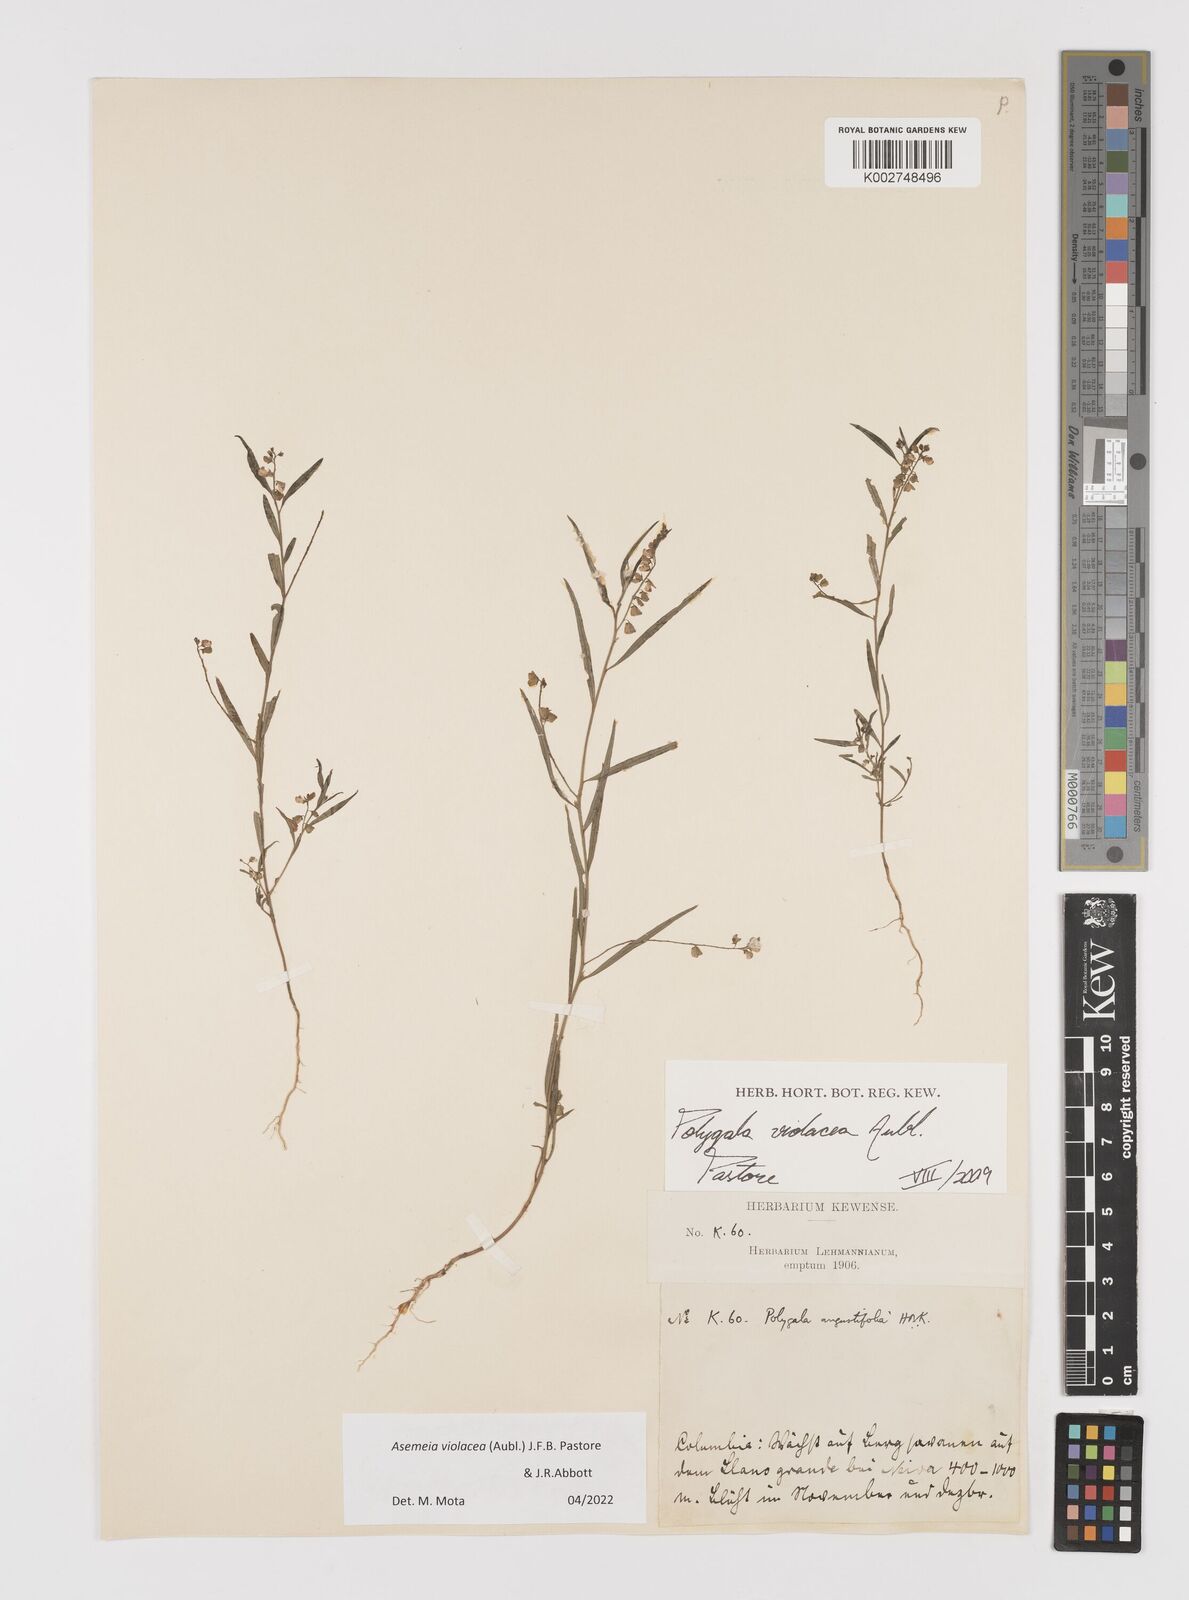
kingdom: Plantae
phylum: Tracheophyta
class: Magnoliopsida
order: Fabales
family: Polygalaceae
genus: Asemeia
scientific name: Asemeia violacea
